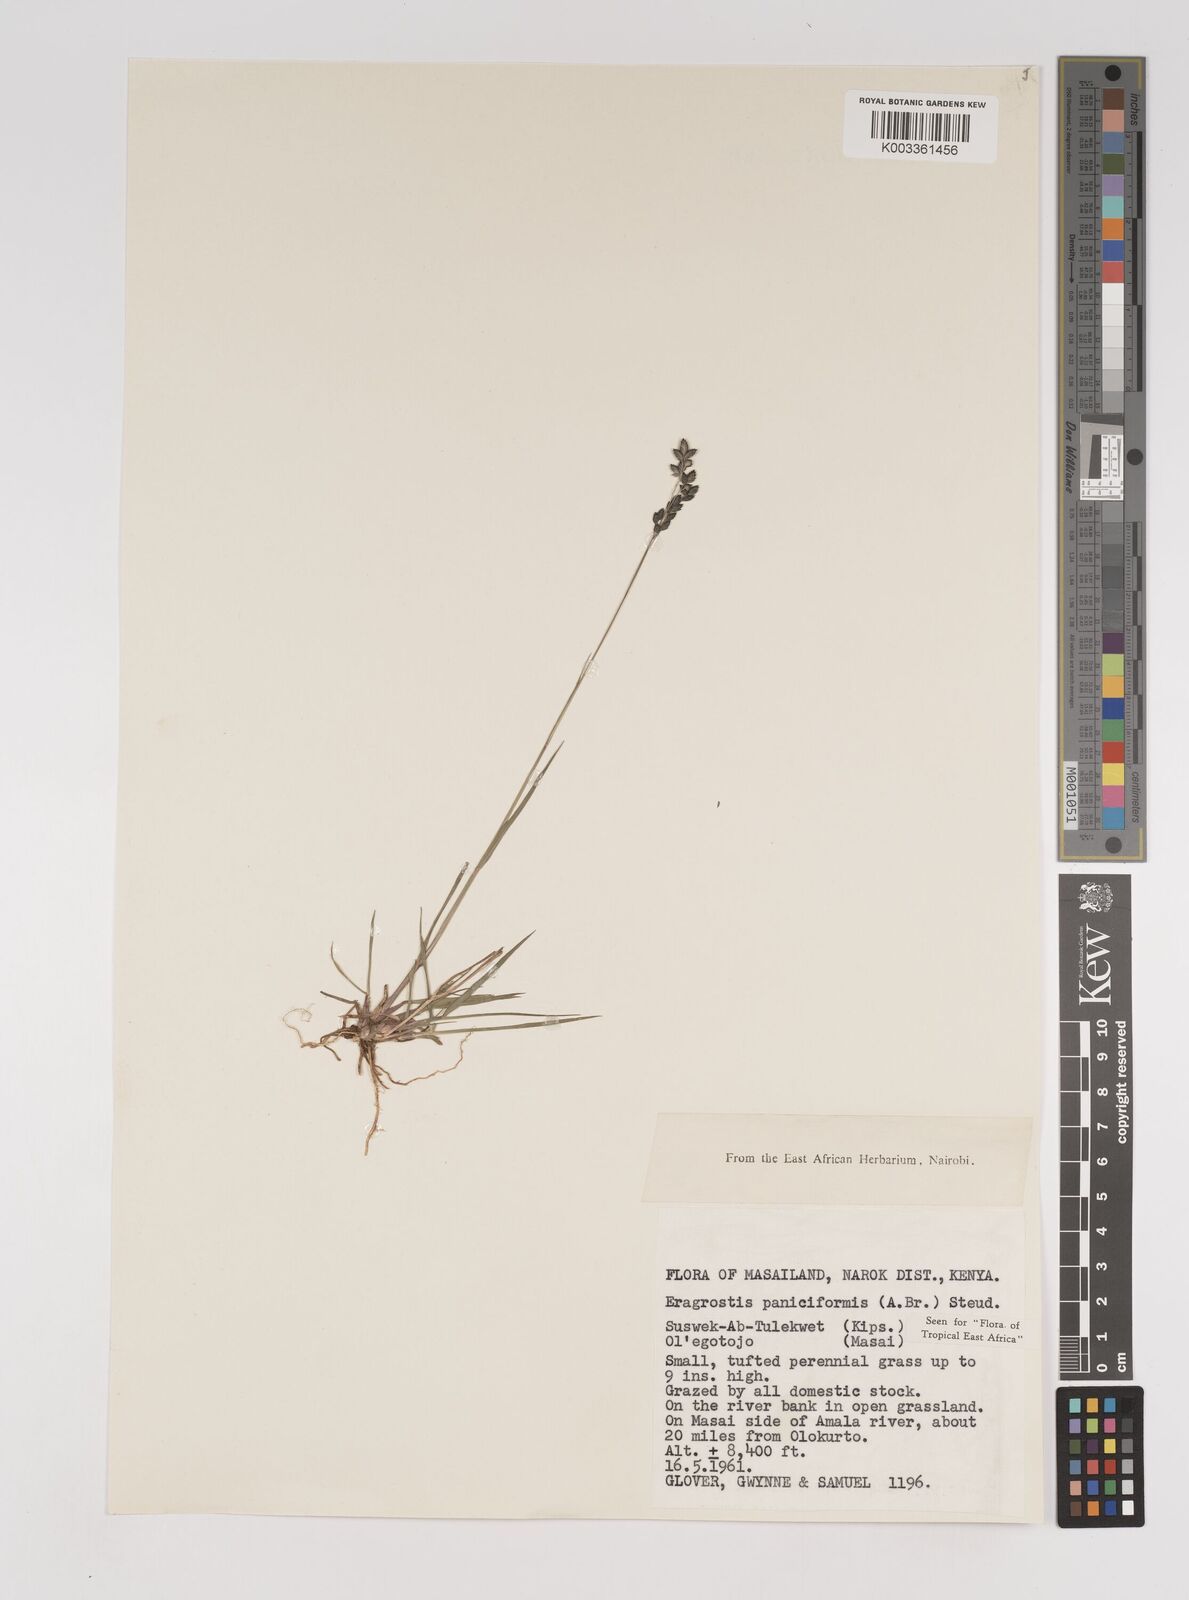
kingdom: Plantae
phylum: Tracheophyta
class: Liliopsida
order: Poales
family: Poaceae
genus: Eragrostis
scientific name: Eragrostis paniciformis
